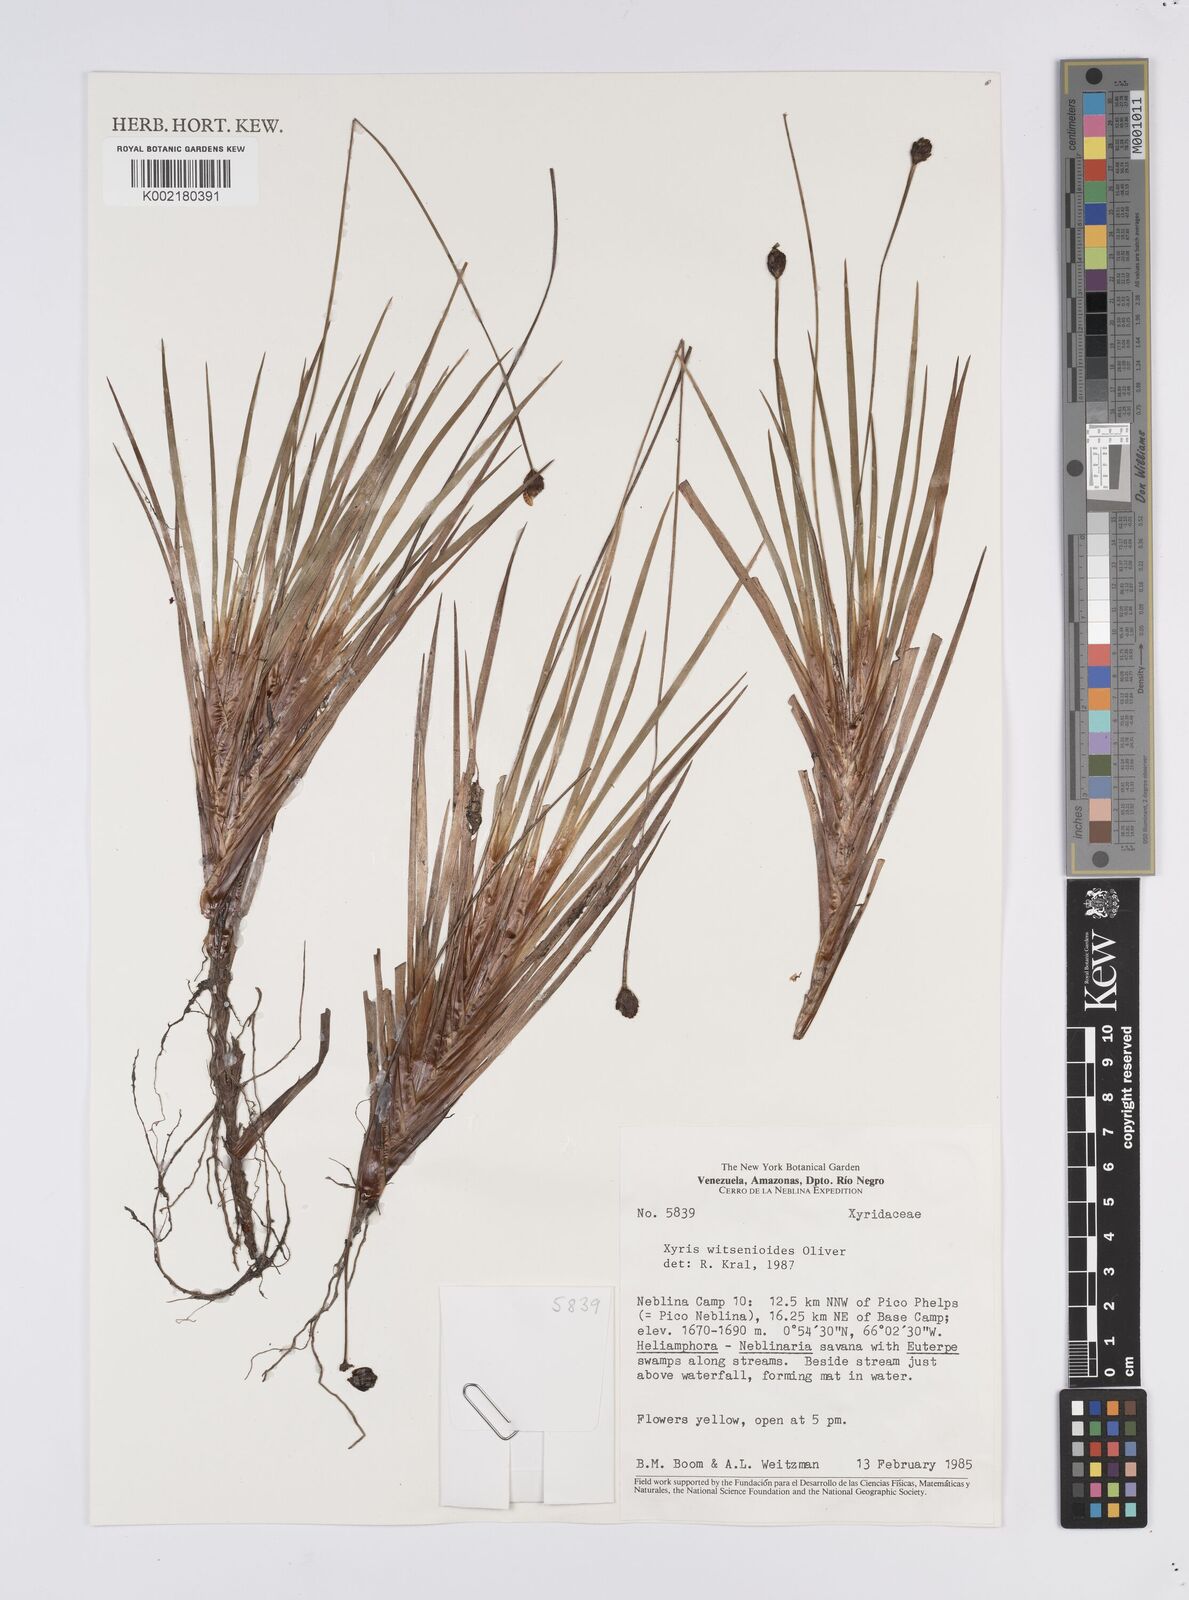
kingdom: Plantae
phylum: Tracheophyta
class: Liliopsida
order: Poales
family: Xyridaceae
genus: Xyris
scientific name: Xyris witsenioides
